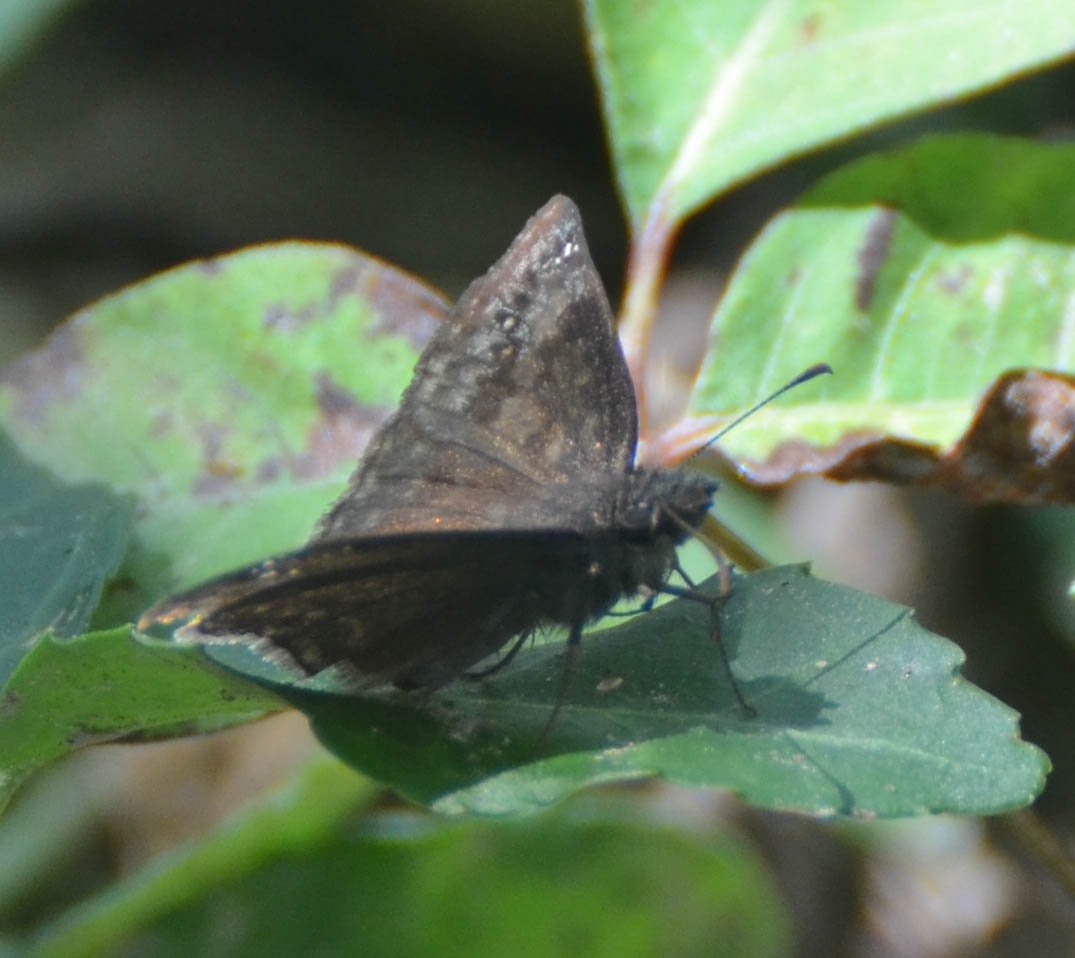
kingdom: Animalia
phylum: Arthropoda
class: Insecta
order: Lepidoptera
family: Hesperiidae
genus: Gesta
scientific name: Gesta
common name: Wild Indigo Duskywing
